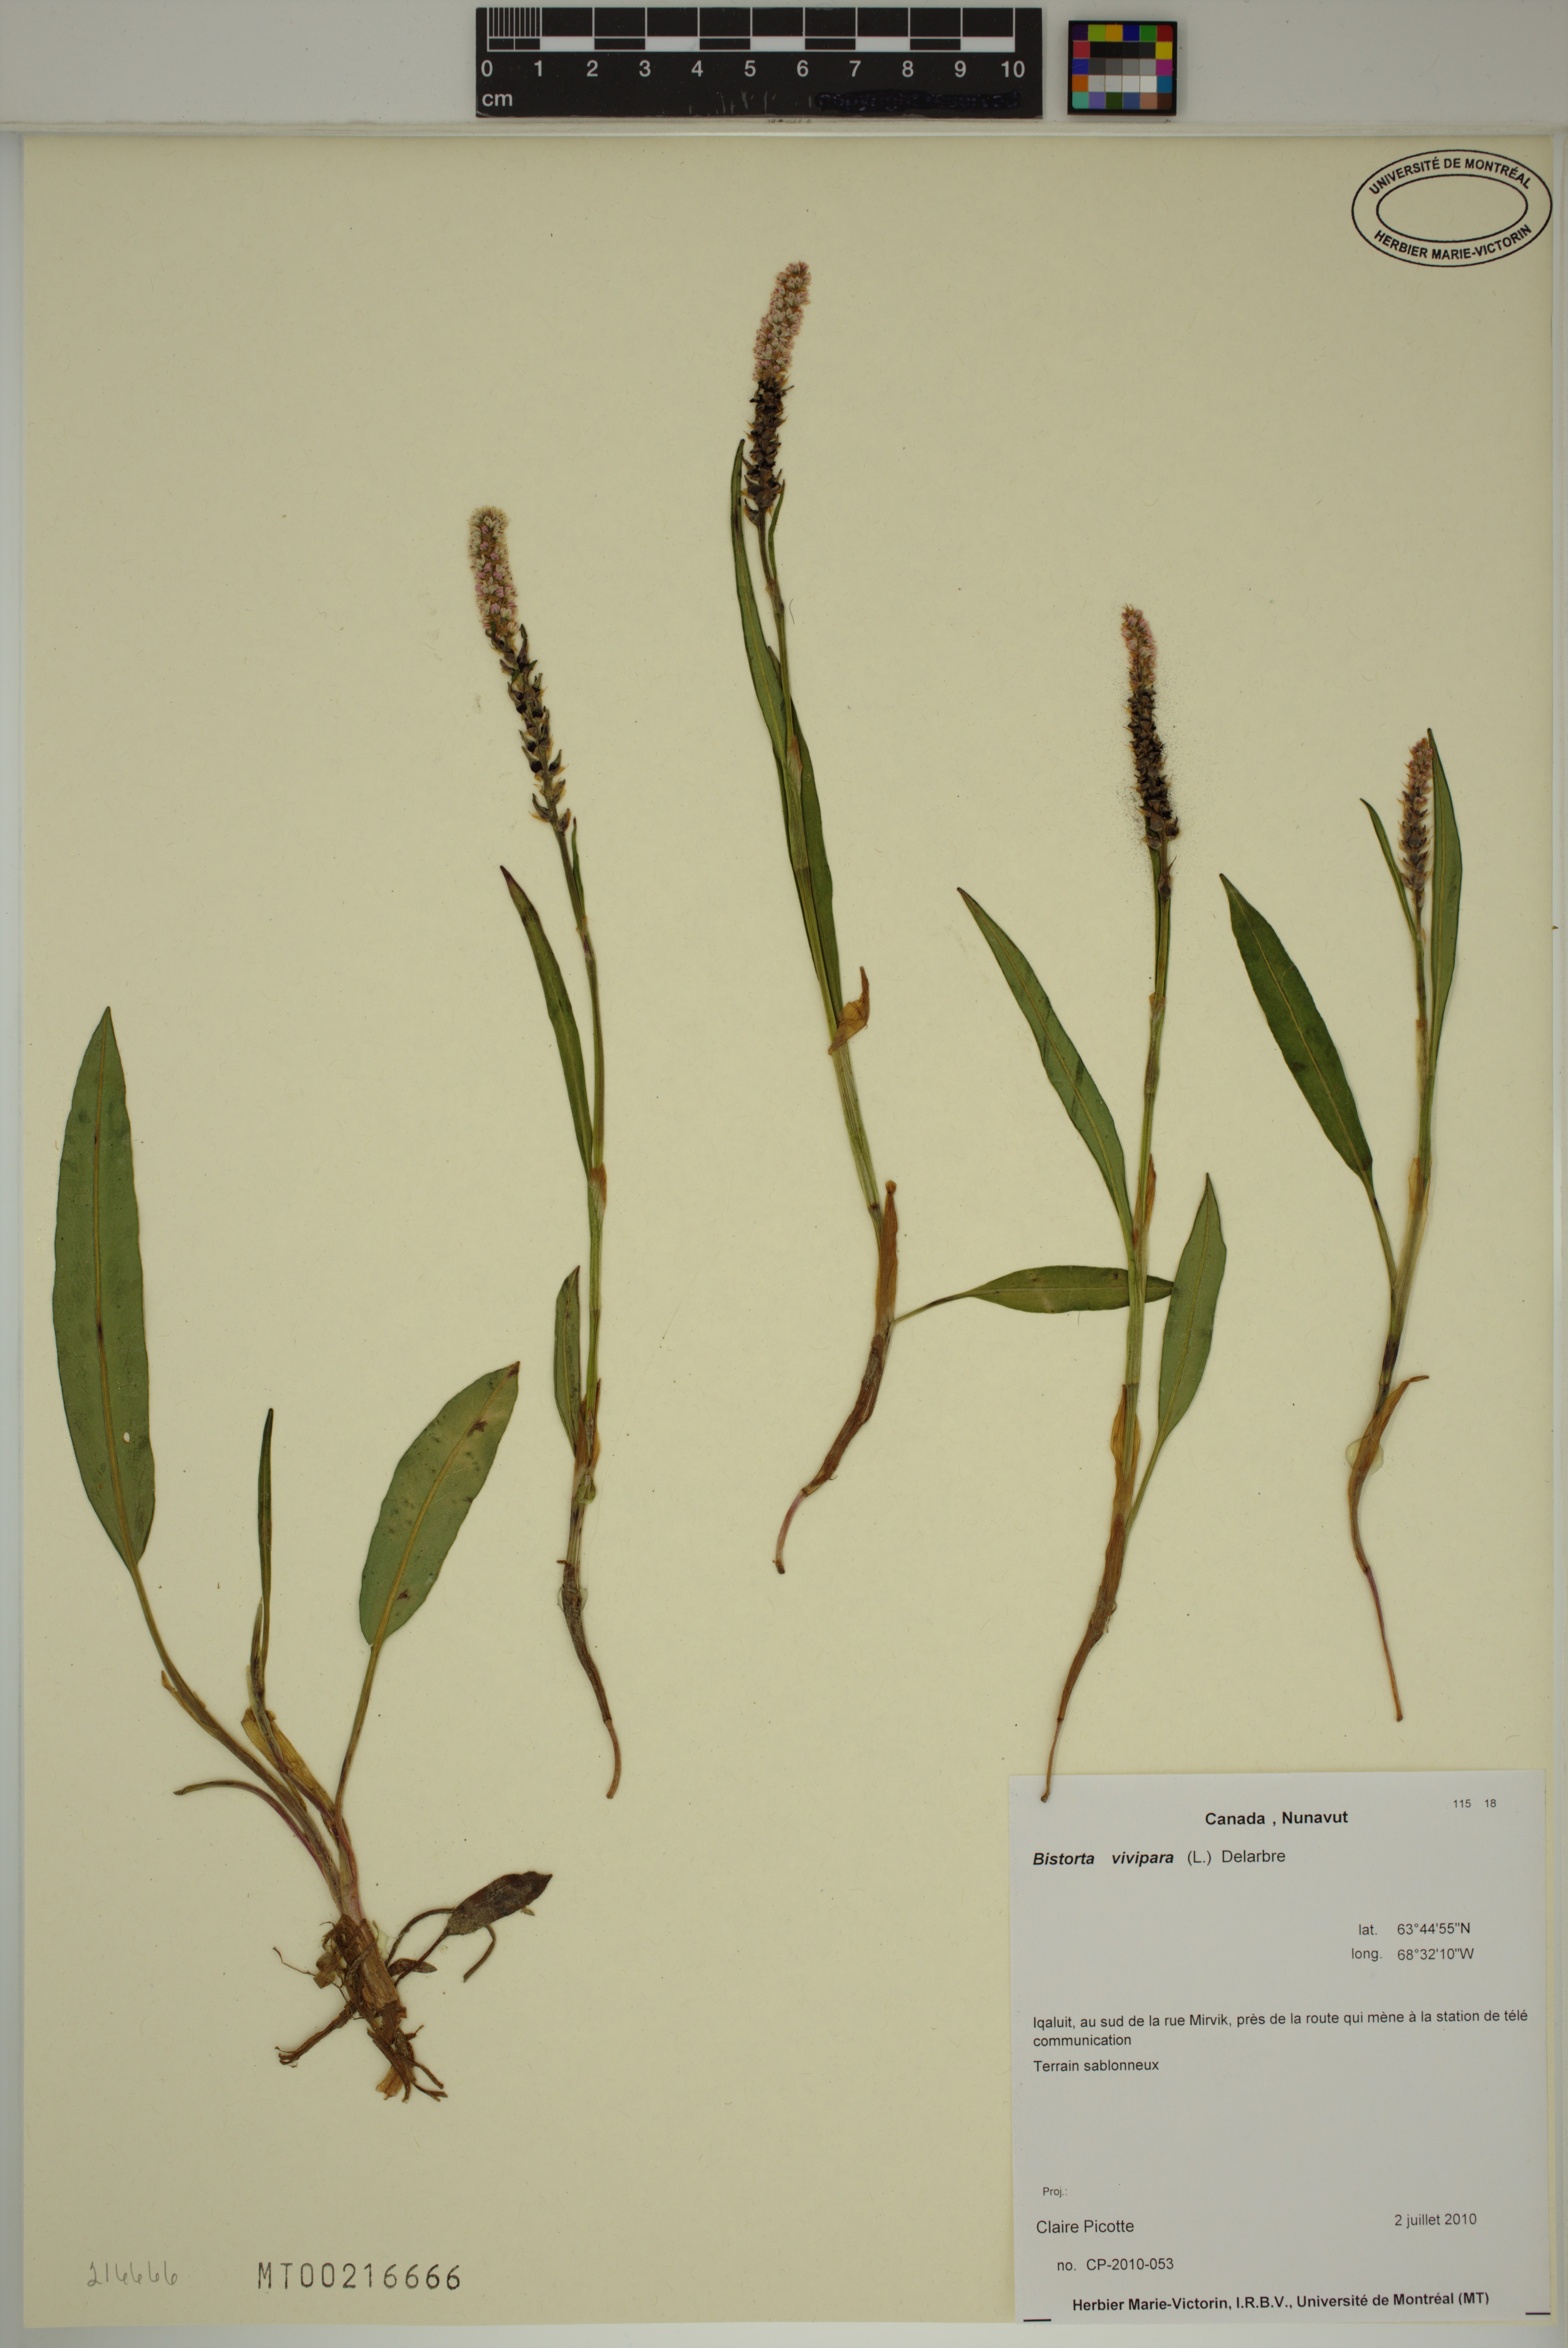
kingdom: Plantae
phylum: Tracheophyta
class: Magnoliopsida
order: Caryophyllales
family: Polygonaceae
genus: Bistorta
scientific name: Bistorta vivipara
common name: Alpine bistort
